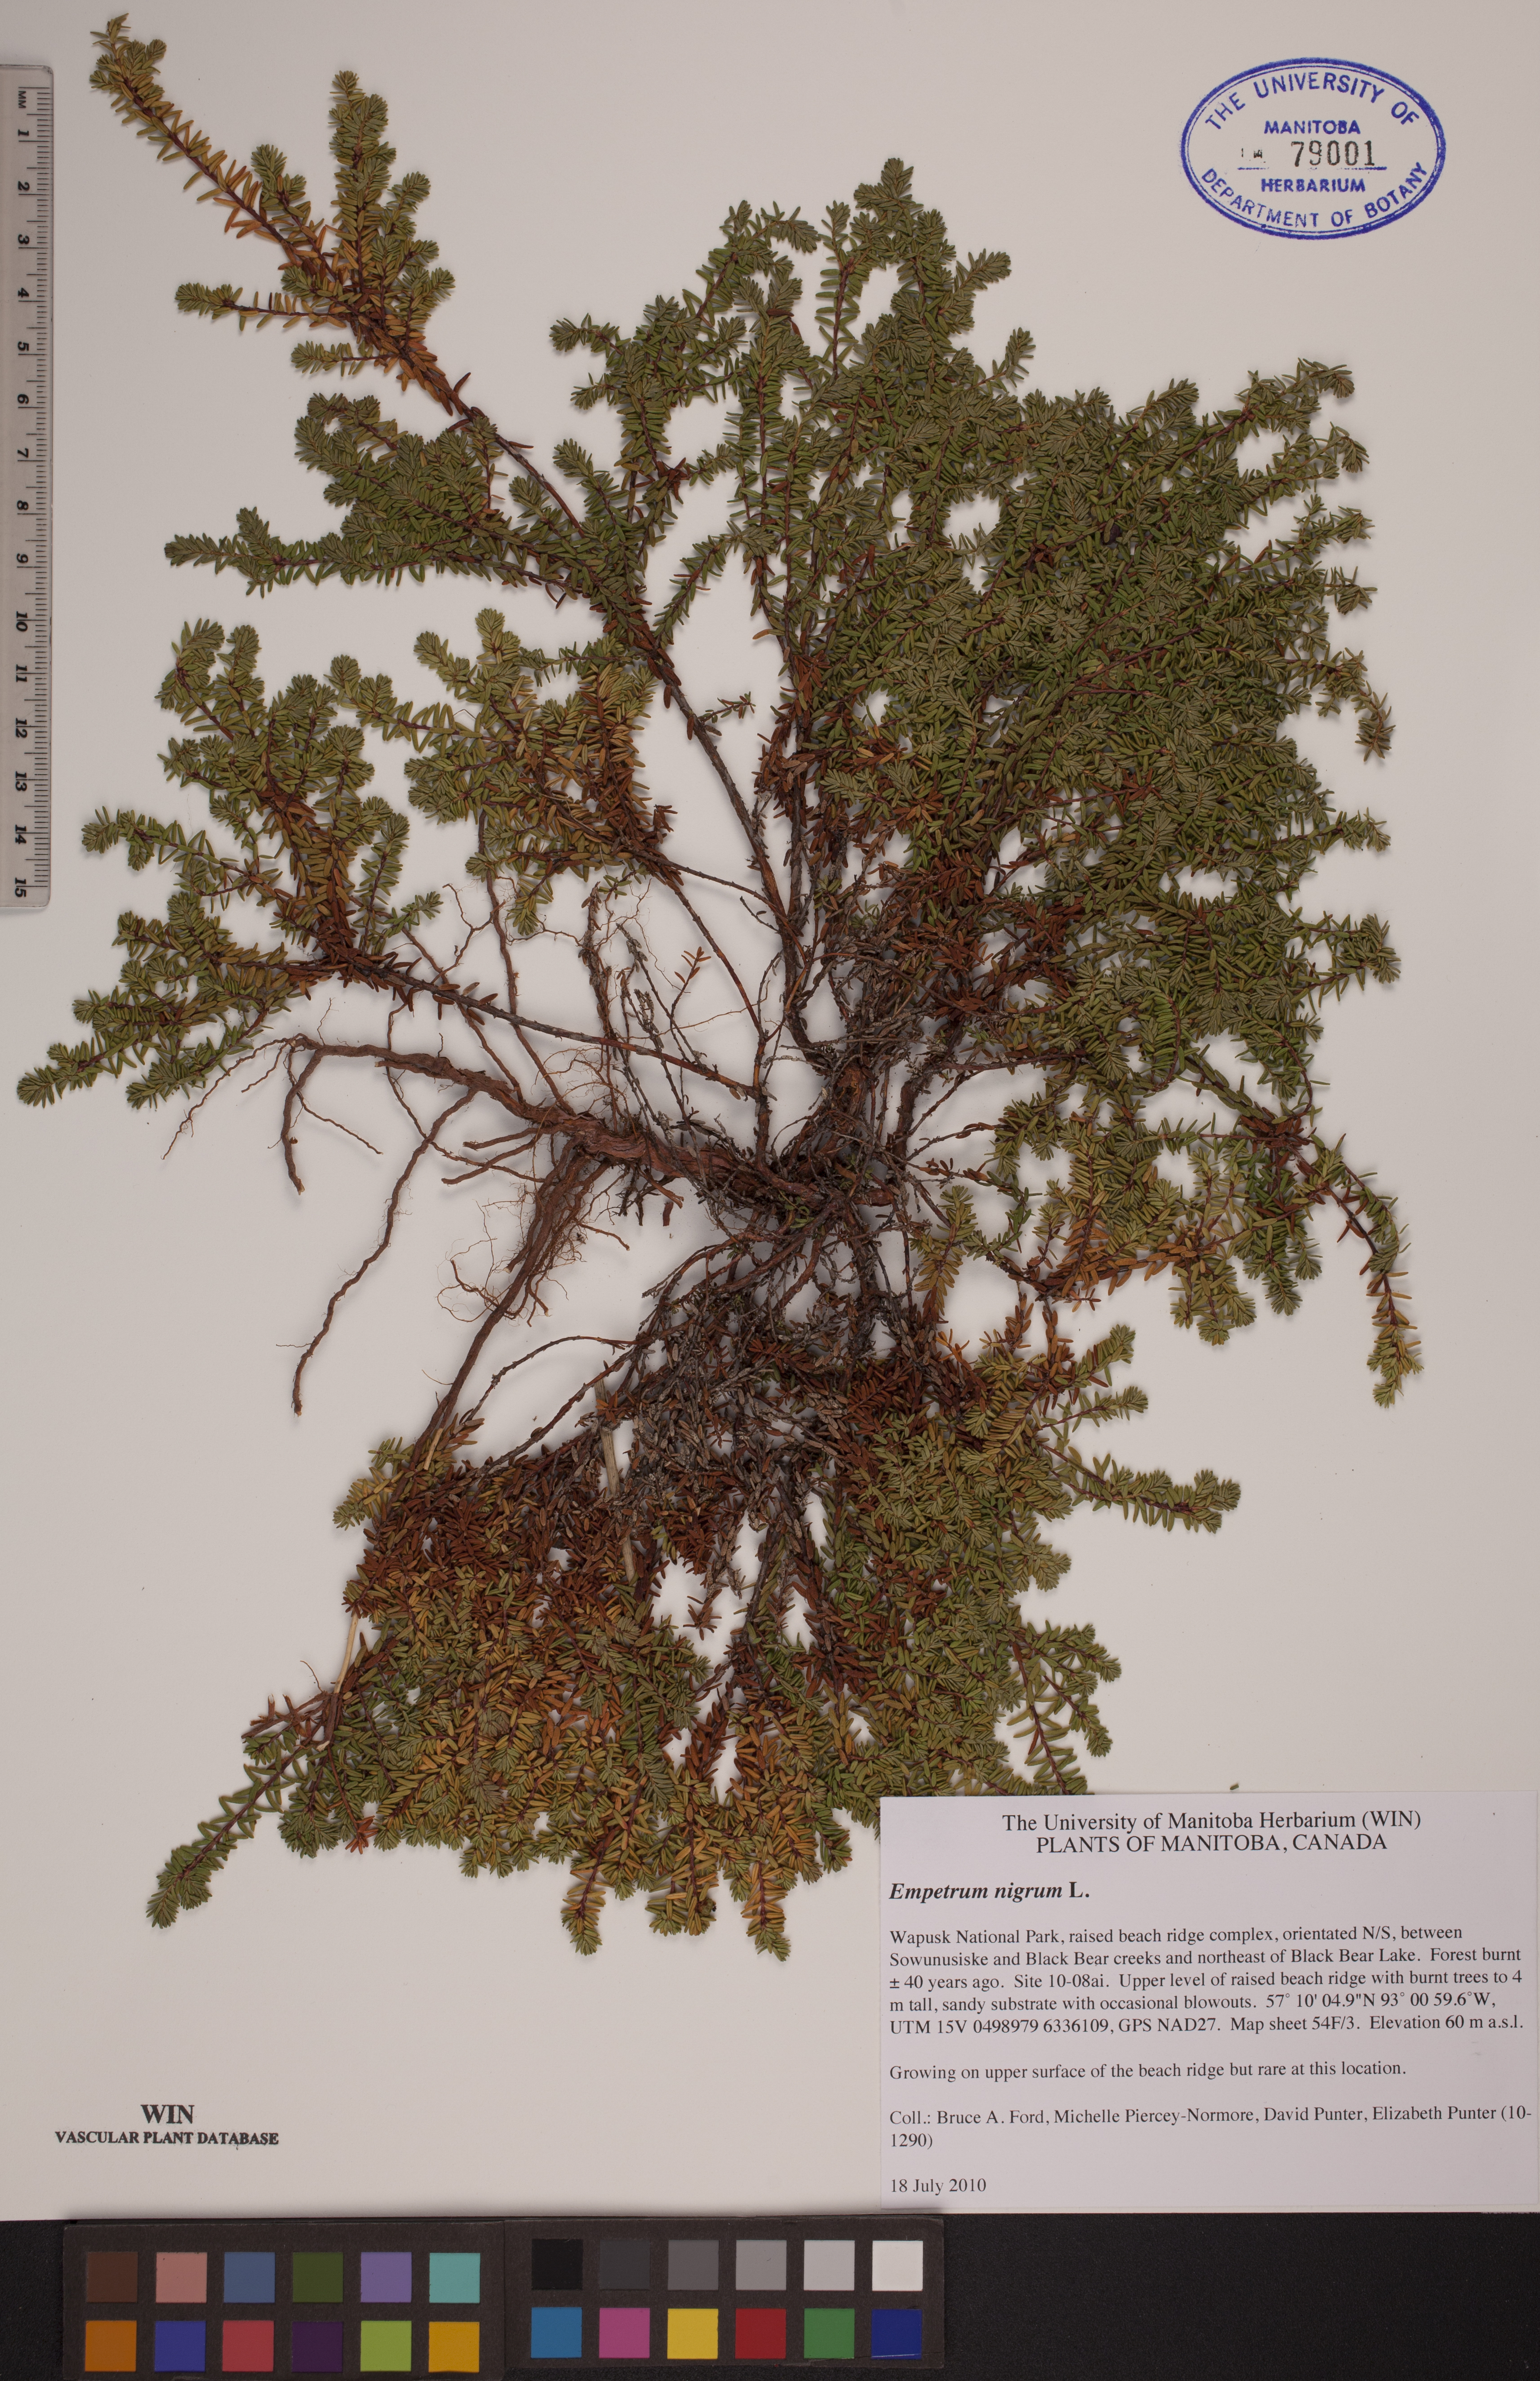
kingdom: Plantae
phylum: Tracheophyta
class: Magnoliopsida
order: Ericales
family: Ericaceae
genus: Empetrum
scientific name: Empetrum nigrum
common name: Black crowberry
